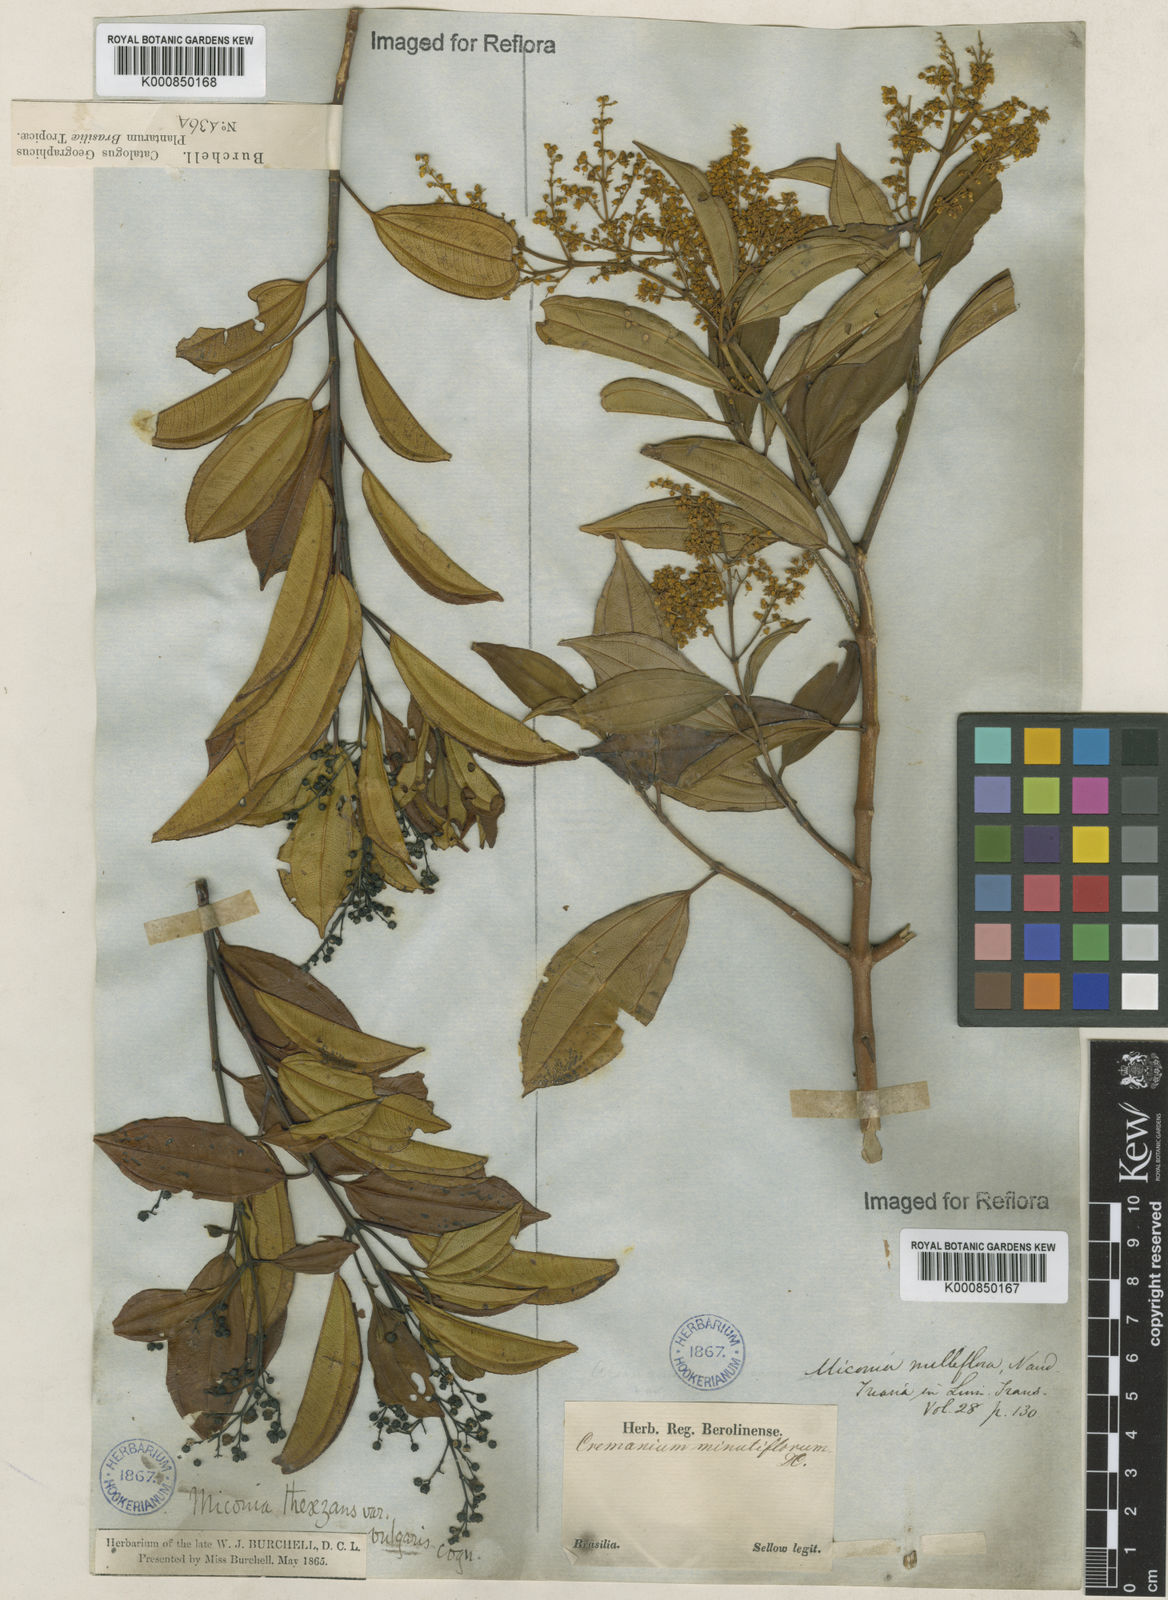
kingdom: Plantae
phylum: Tracheophyta
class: Magnoliopsida
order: Myrtales
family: Melastomataceae
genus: Miconia
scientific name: Miconia
